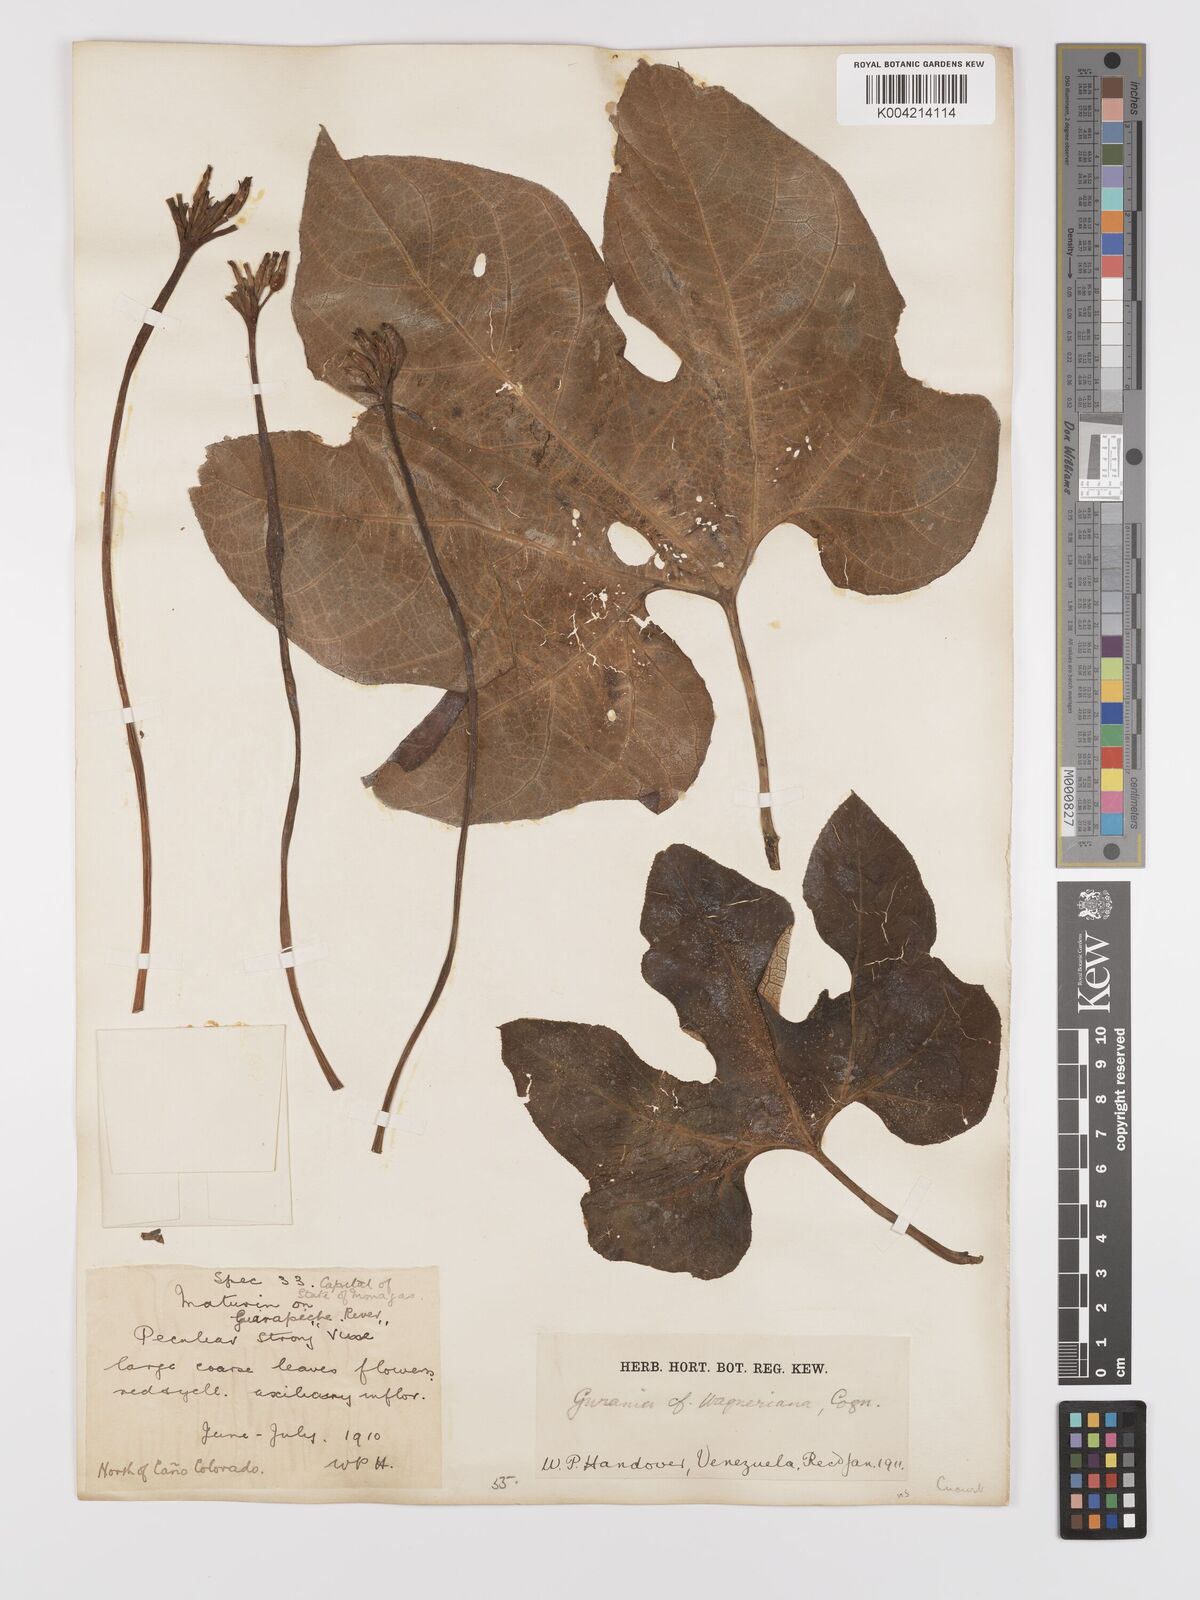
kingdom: Plantae
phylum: Tracheophyta
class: Magnoliopsida
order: Cucurbitales
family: Cucurbitaceae
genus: Gurania
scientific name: Gurania lobata
